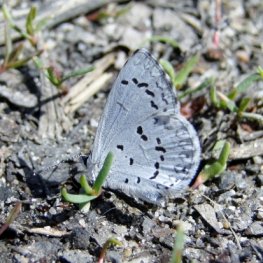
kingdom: Animalia
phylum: Arthropoda
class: Insecta
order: Lepidoptera
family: Lycaenidae
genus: Celastrina
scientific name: Celastrina lucia
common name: Northern Spring Azure
